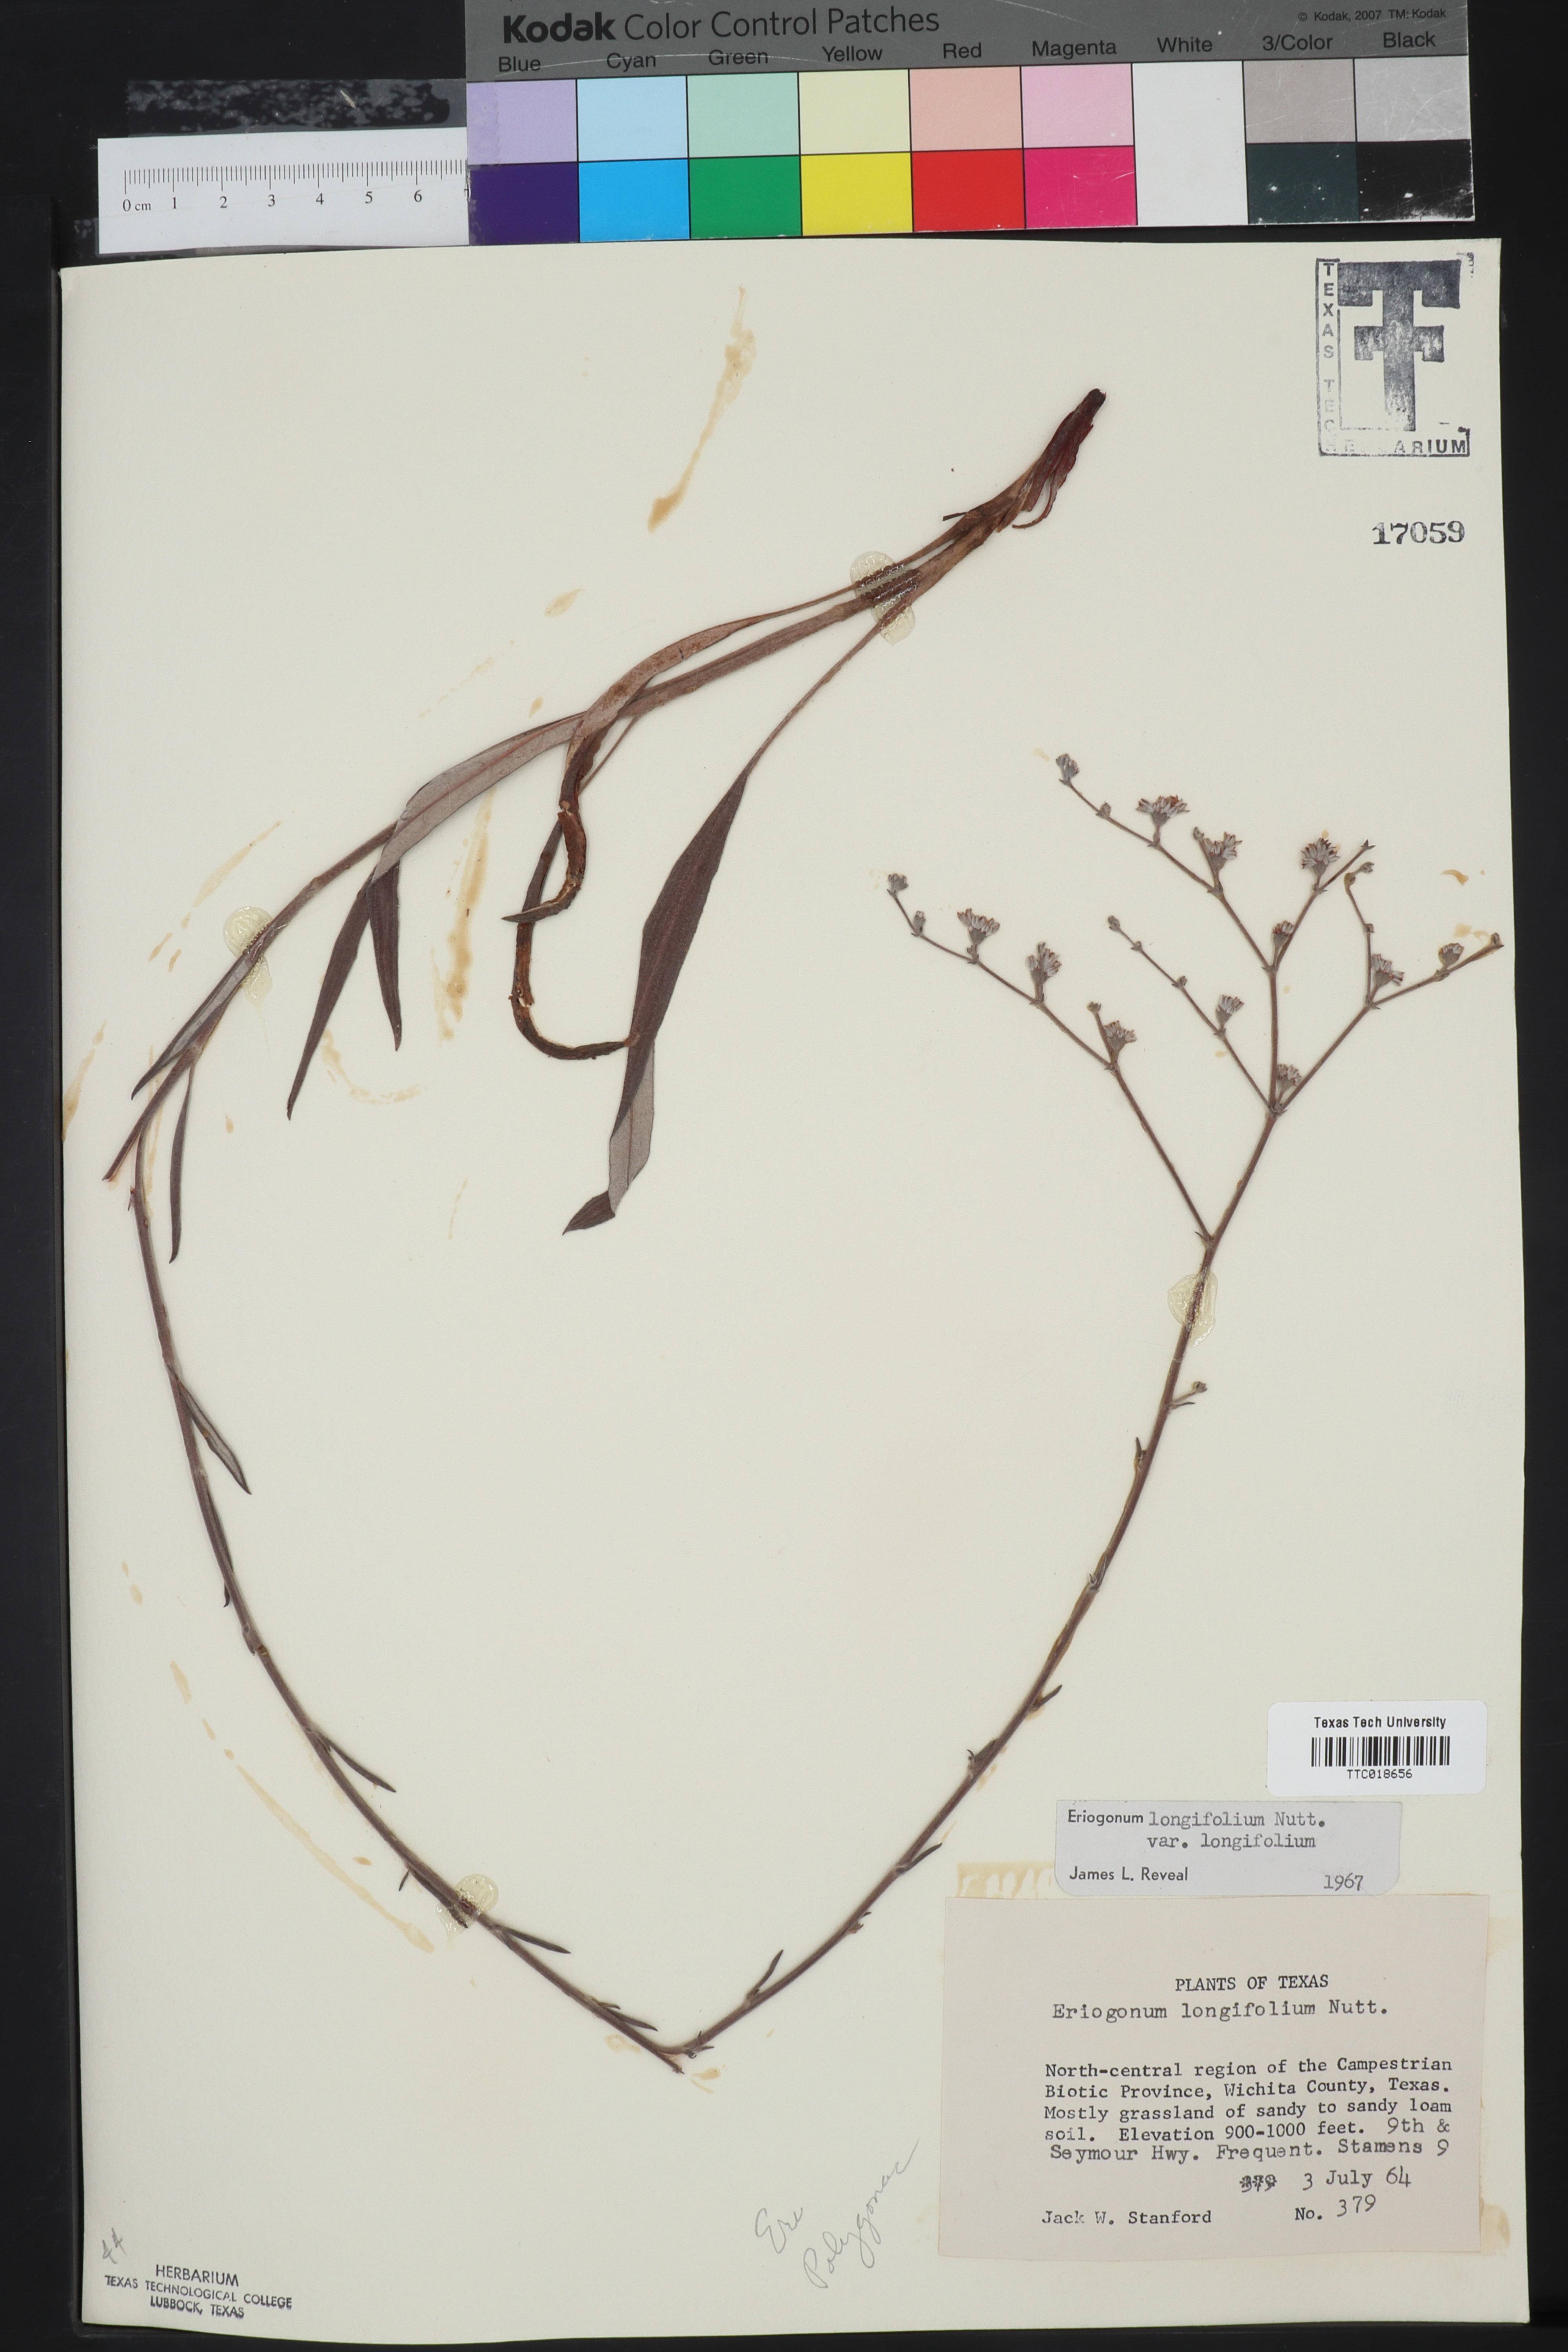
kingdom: Plantae
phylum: Tracheophyta
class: Magnoliopsida
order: Caryophyllales
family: Polygonaceae
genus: Eriogonum
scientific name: Eriogonum longifolium
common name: Longleaf wild buckwheat
